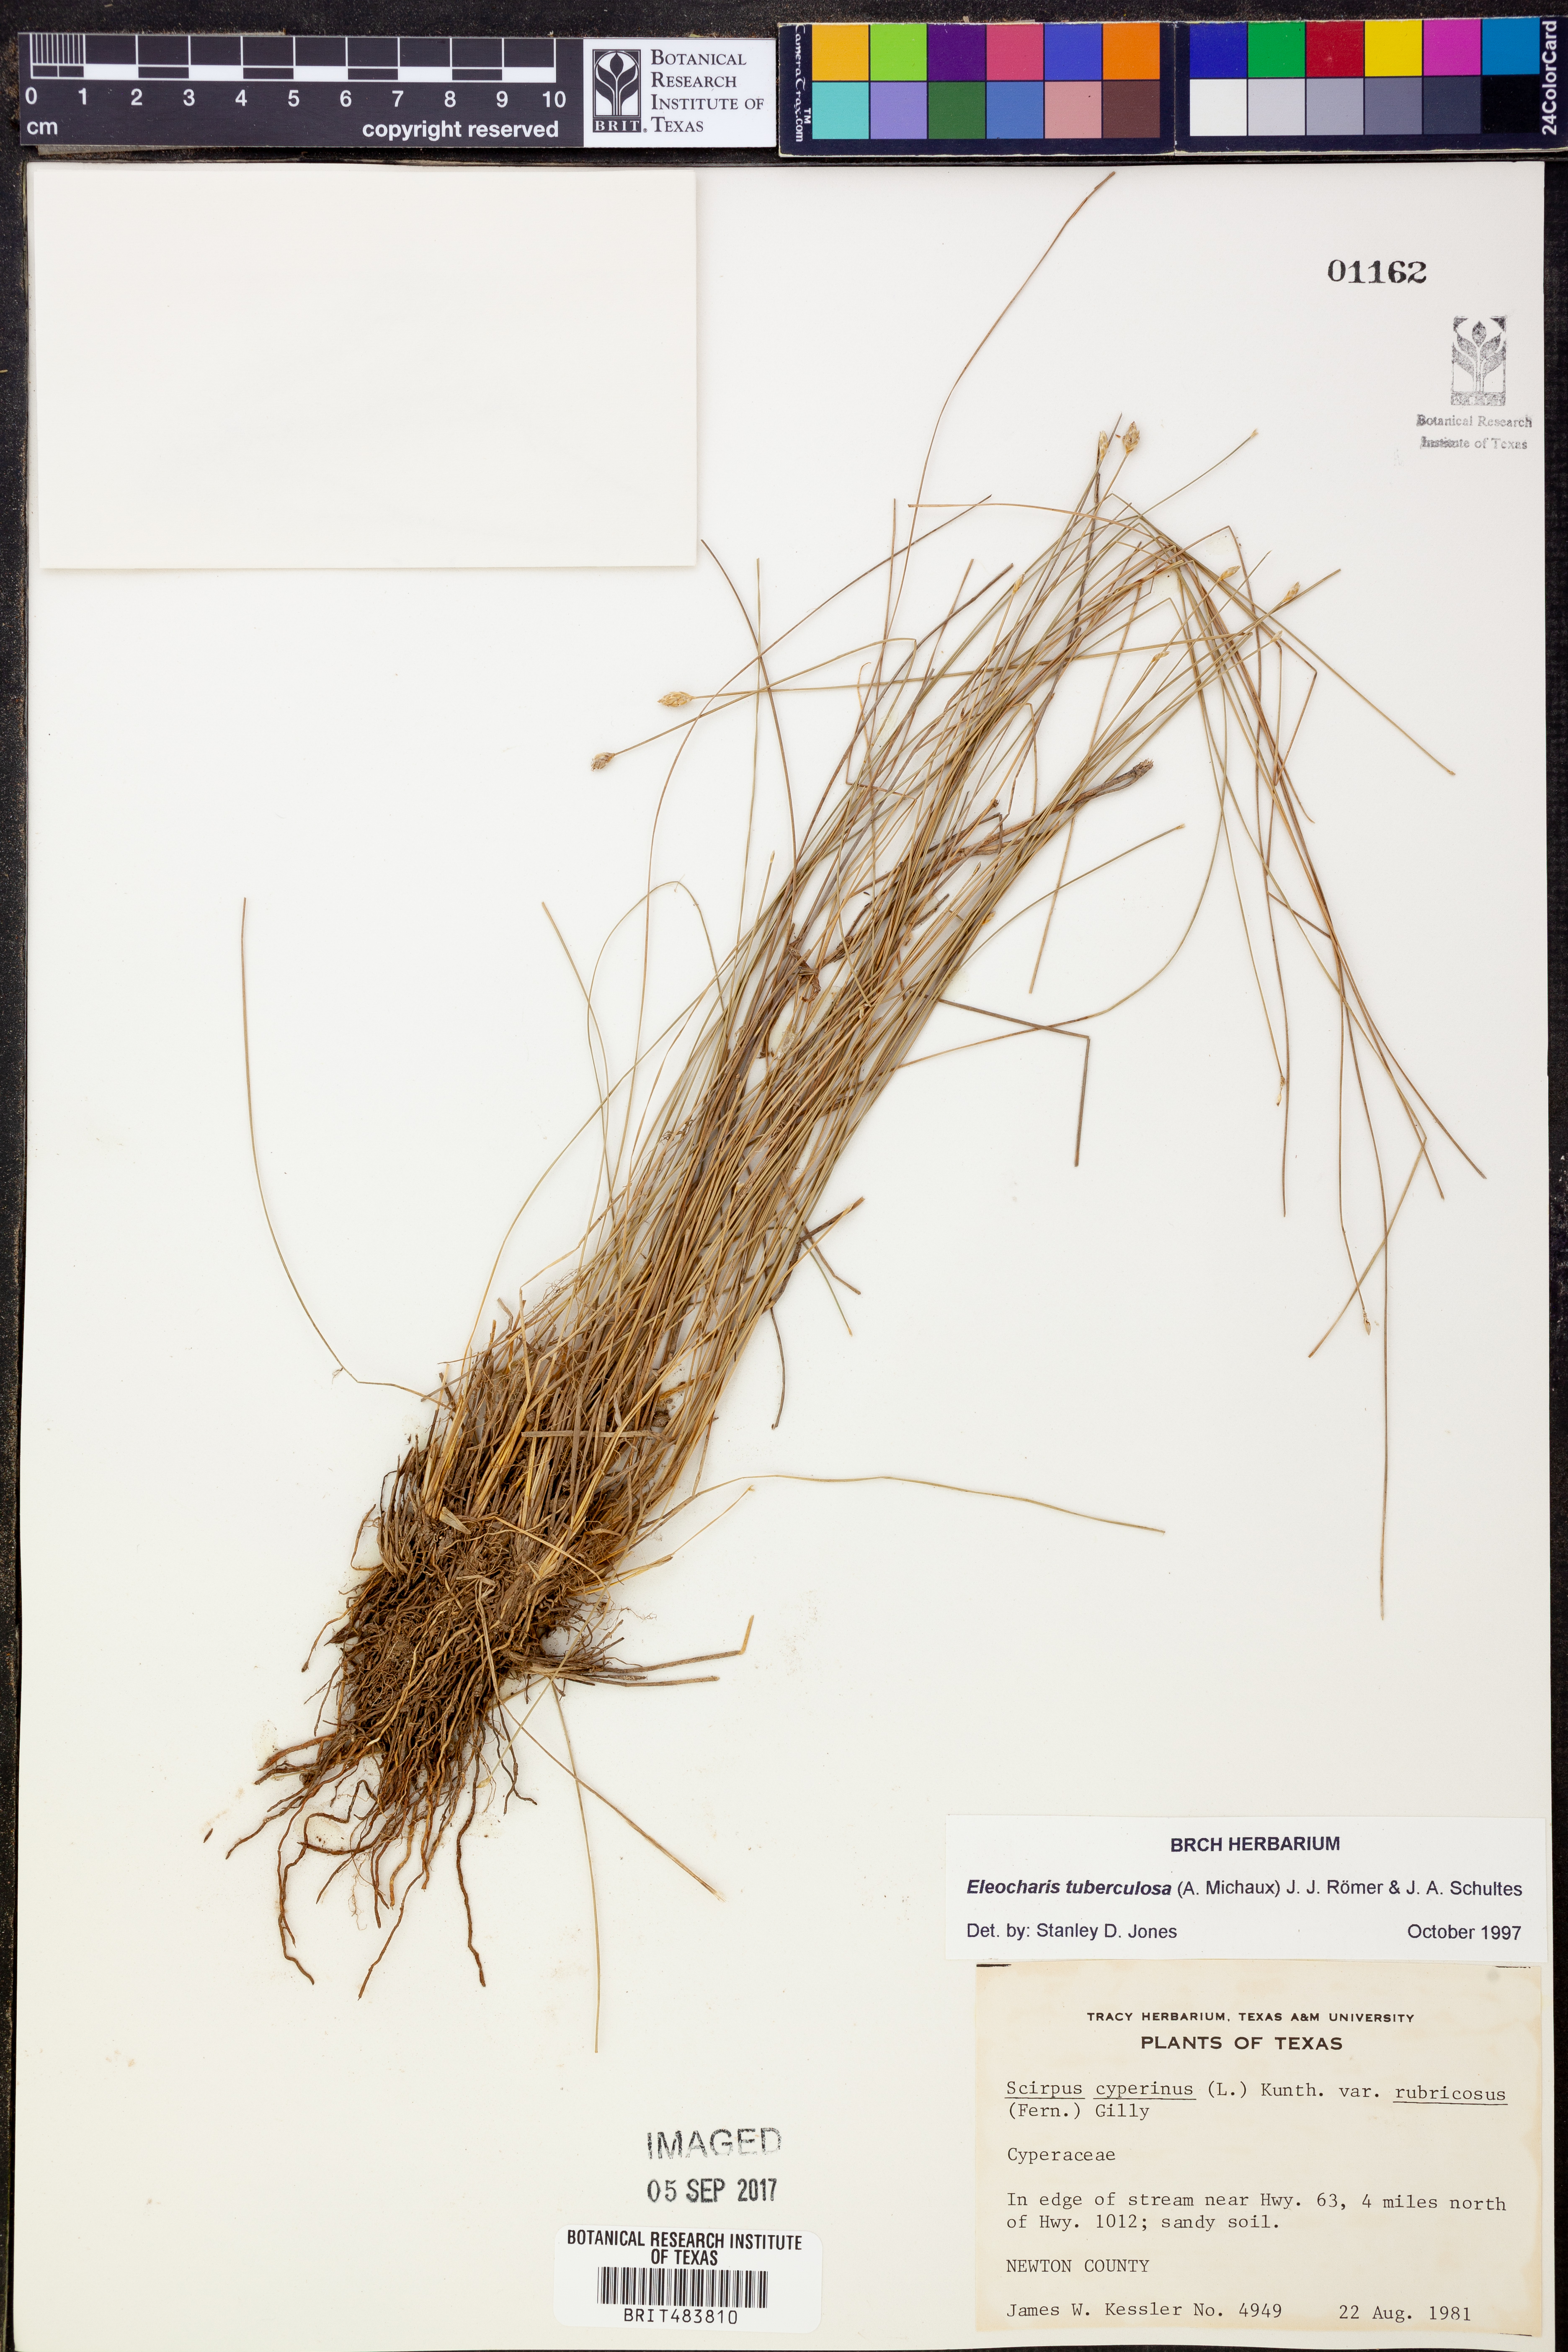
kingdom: Plantae
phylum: Tracheophyta
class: Liliopsida
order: Poales
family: Cyperaceae
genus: Eleocharis
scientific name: Eleocharis tuberculosa
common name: Cone-cup spikerush
